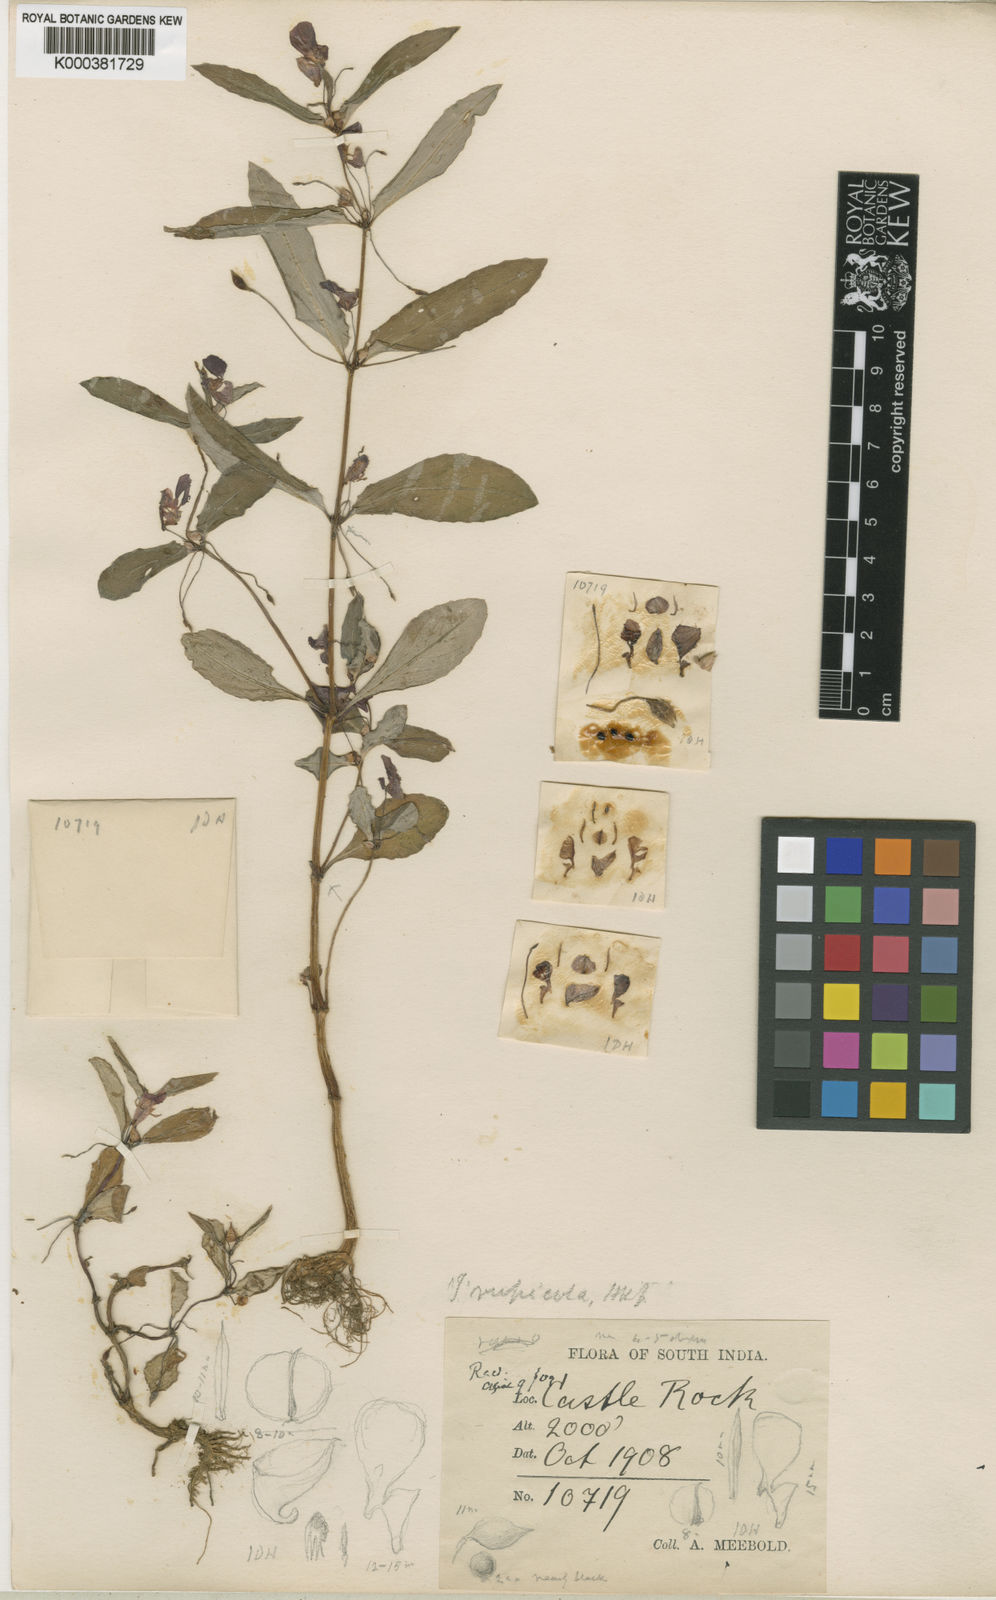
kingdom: Plantae
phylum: Tracheophyta
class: Magnoliopsida
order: Ericales
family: Balsaminaceae
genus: Impatiens
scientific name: Impatiens chinensis
